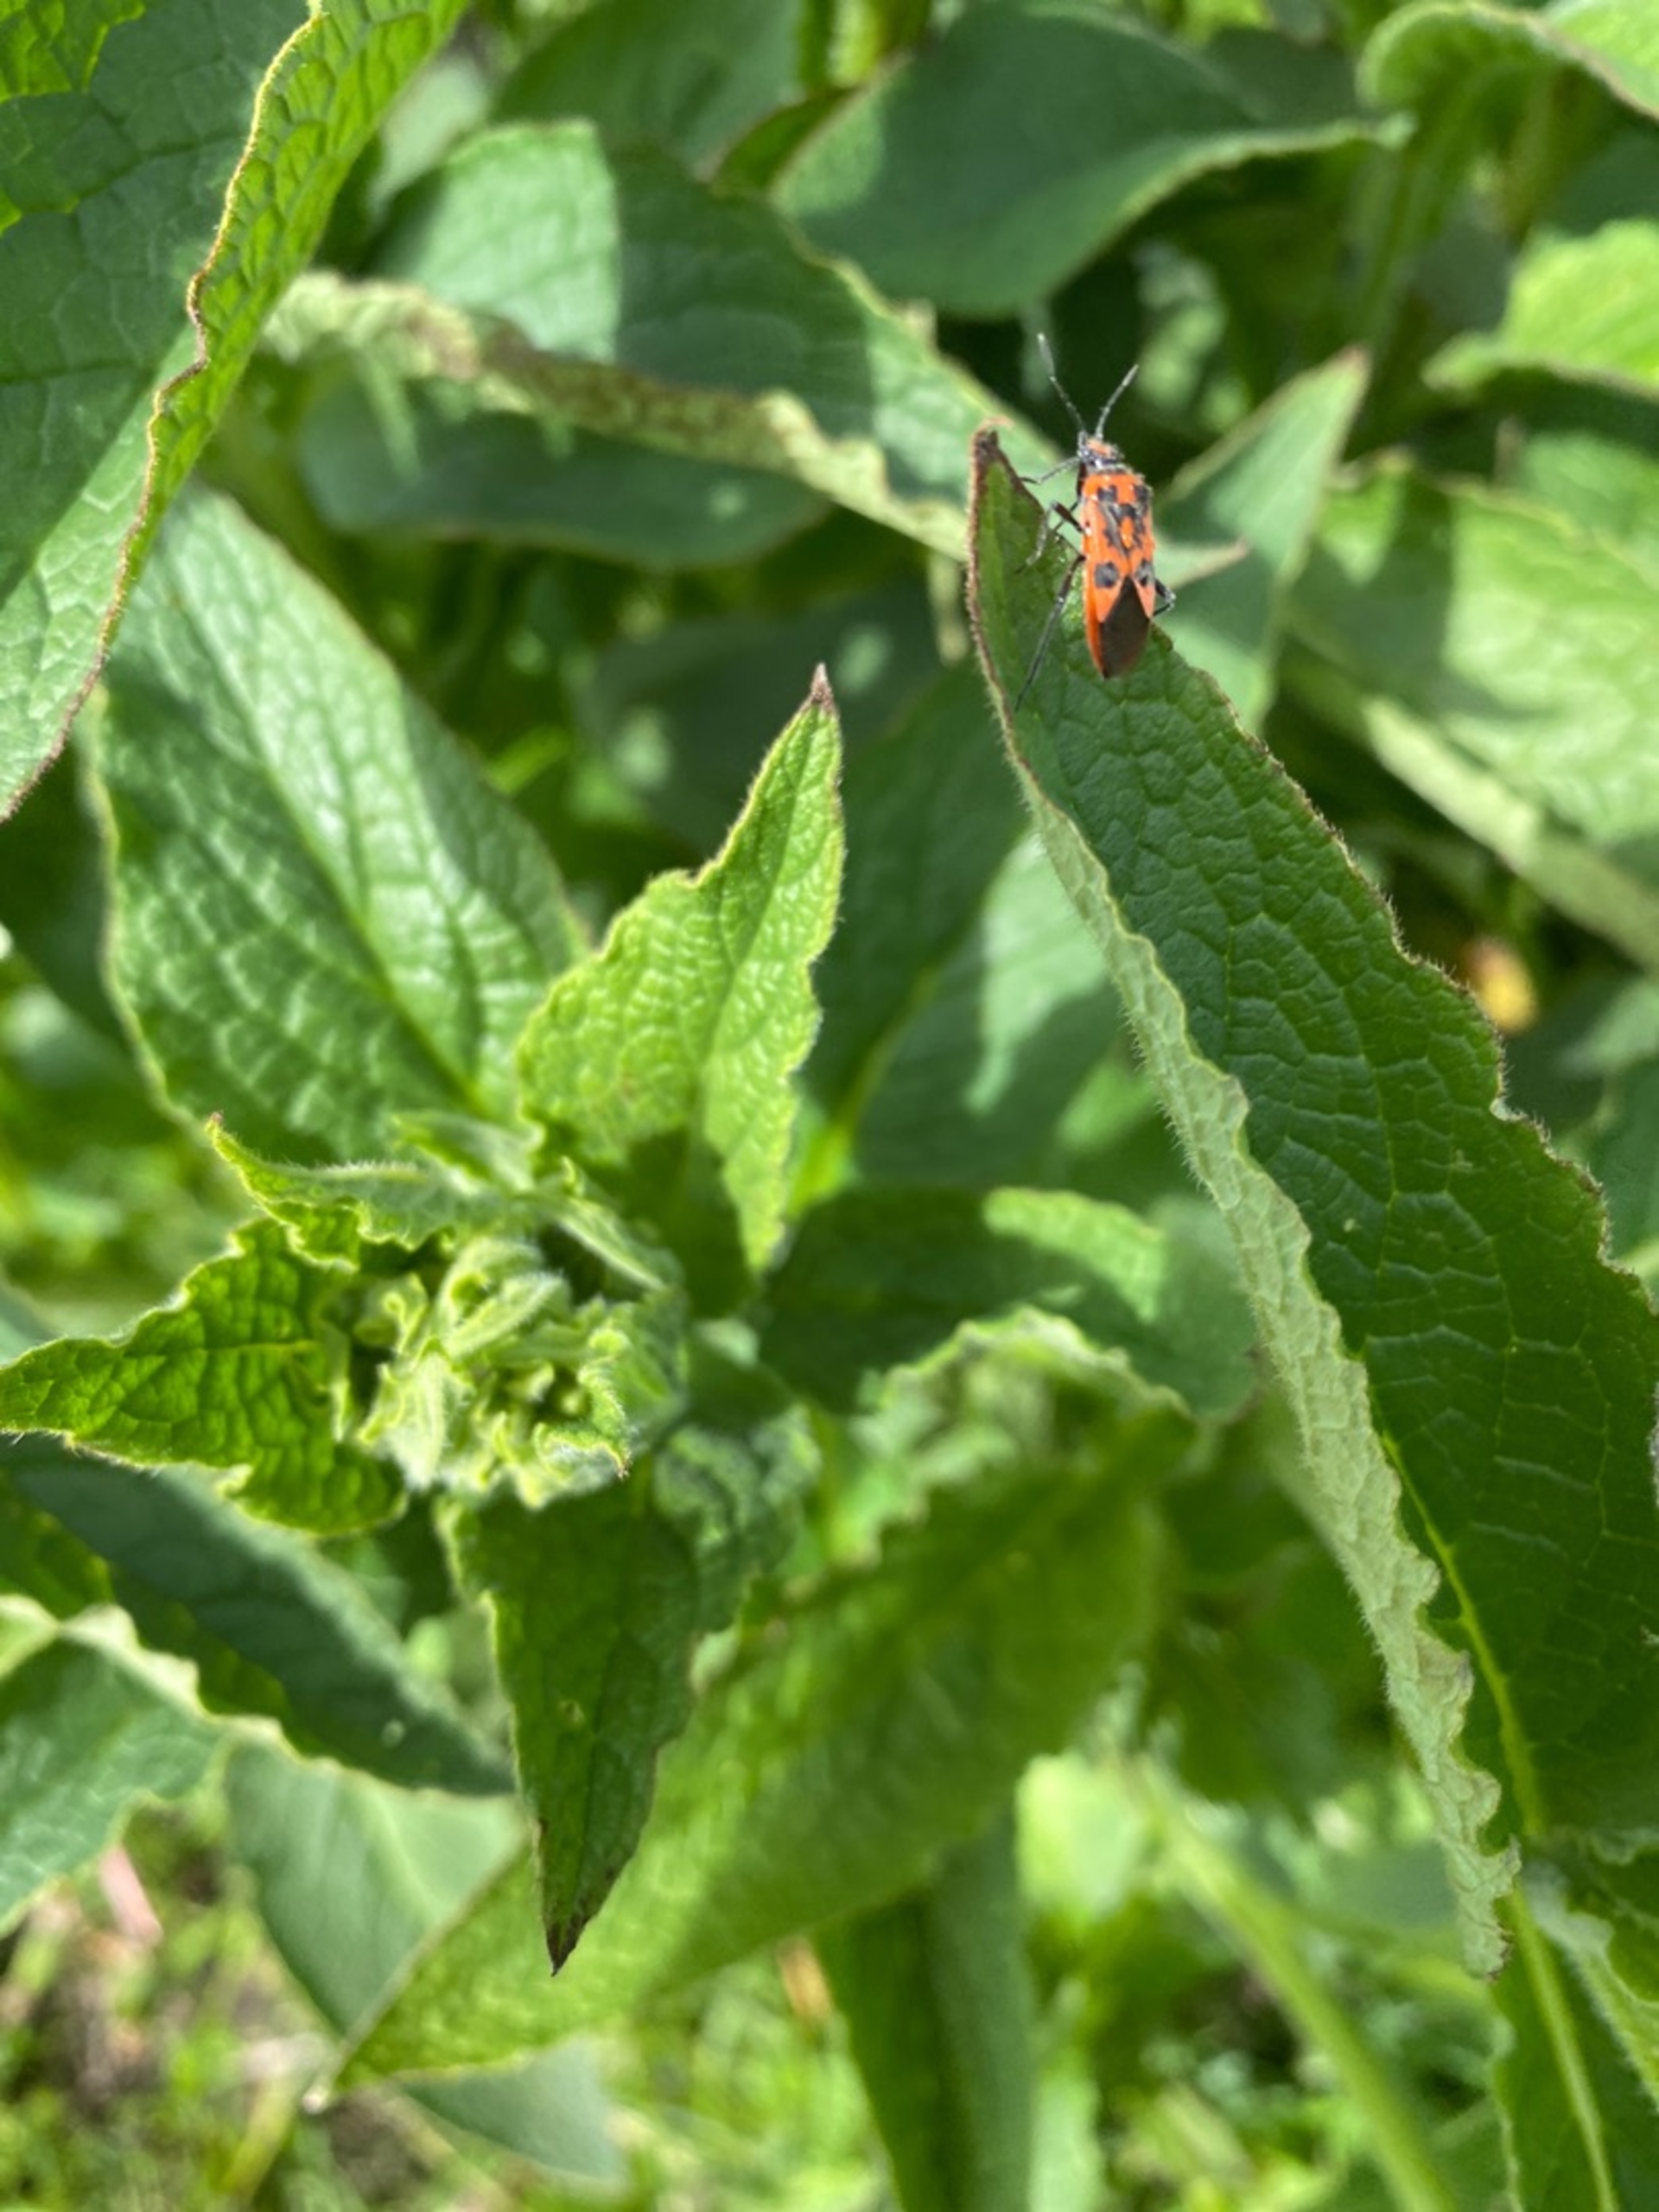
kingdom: Animalia
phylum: Arthropoda
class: Insecta
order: Hemiptera
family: Rhopalidae
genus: Corizus
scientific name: Corizus hyoscyami
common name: Rød kanttæge
